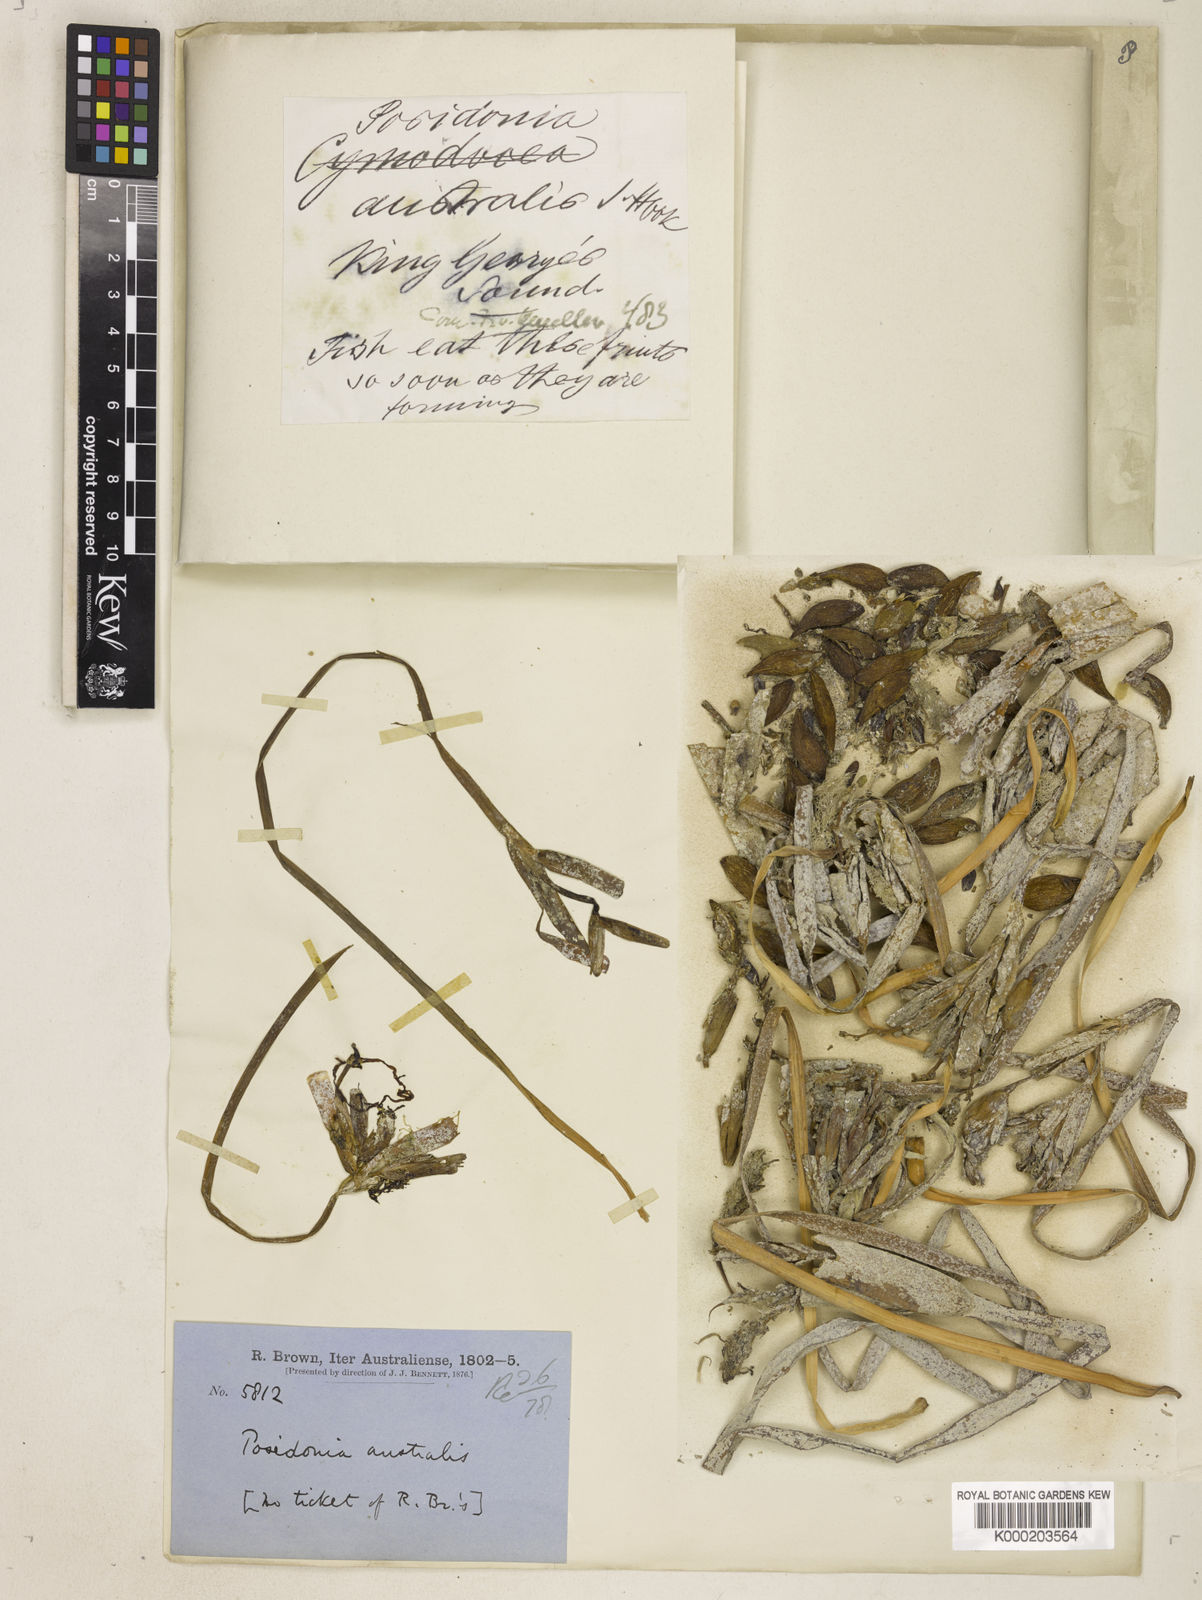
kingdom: Plantae
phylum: Tracheophyta
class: Liliopsida
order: Alismatales
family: Posidoniaceae
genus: Posidonia
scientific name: Posidonia australis
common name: Species code: pa
